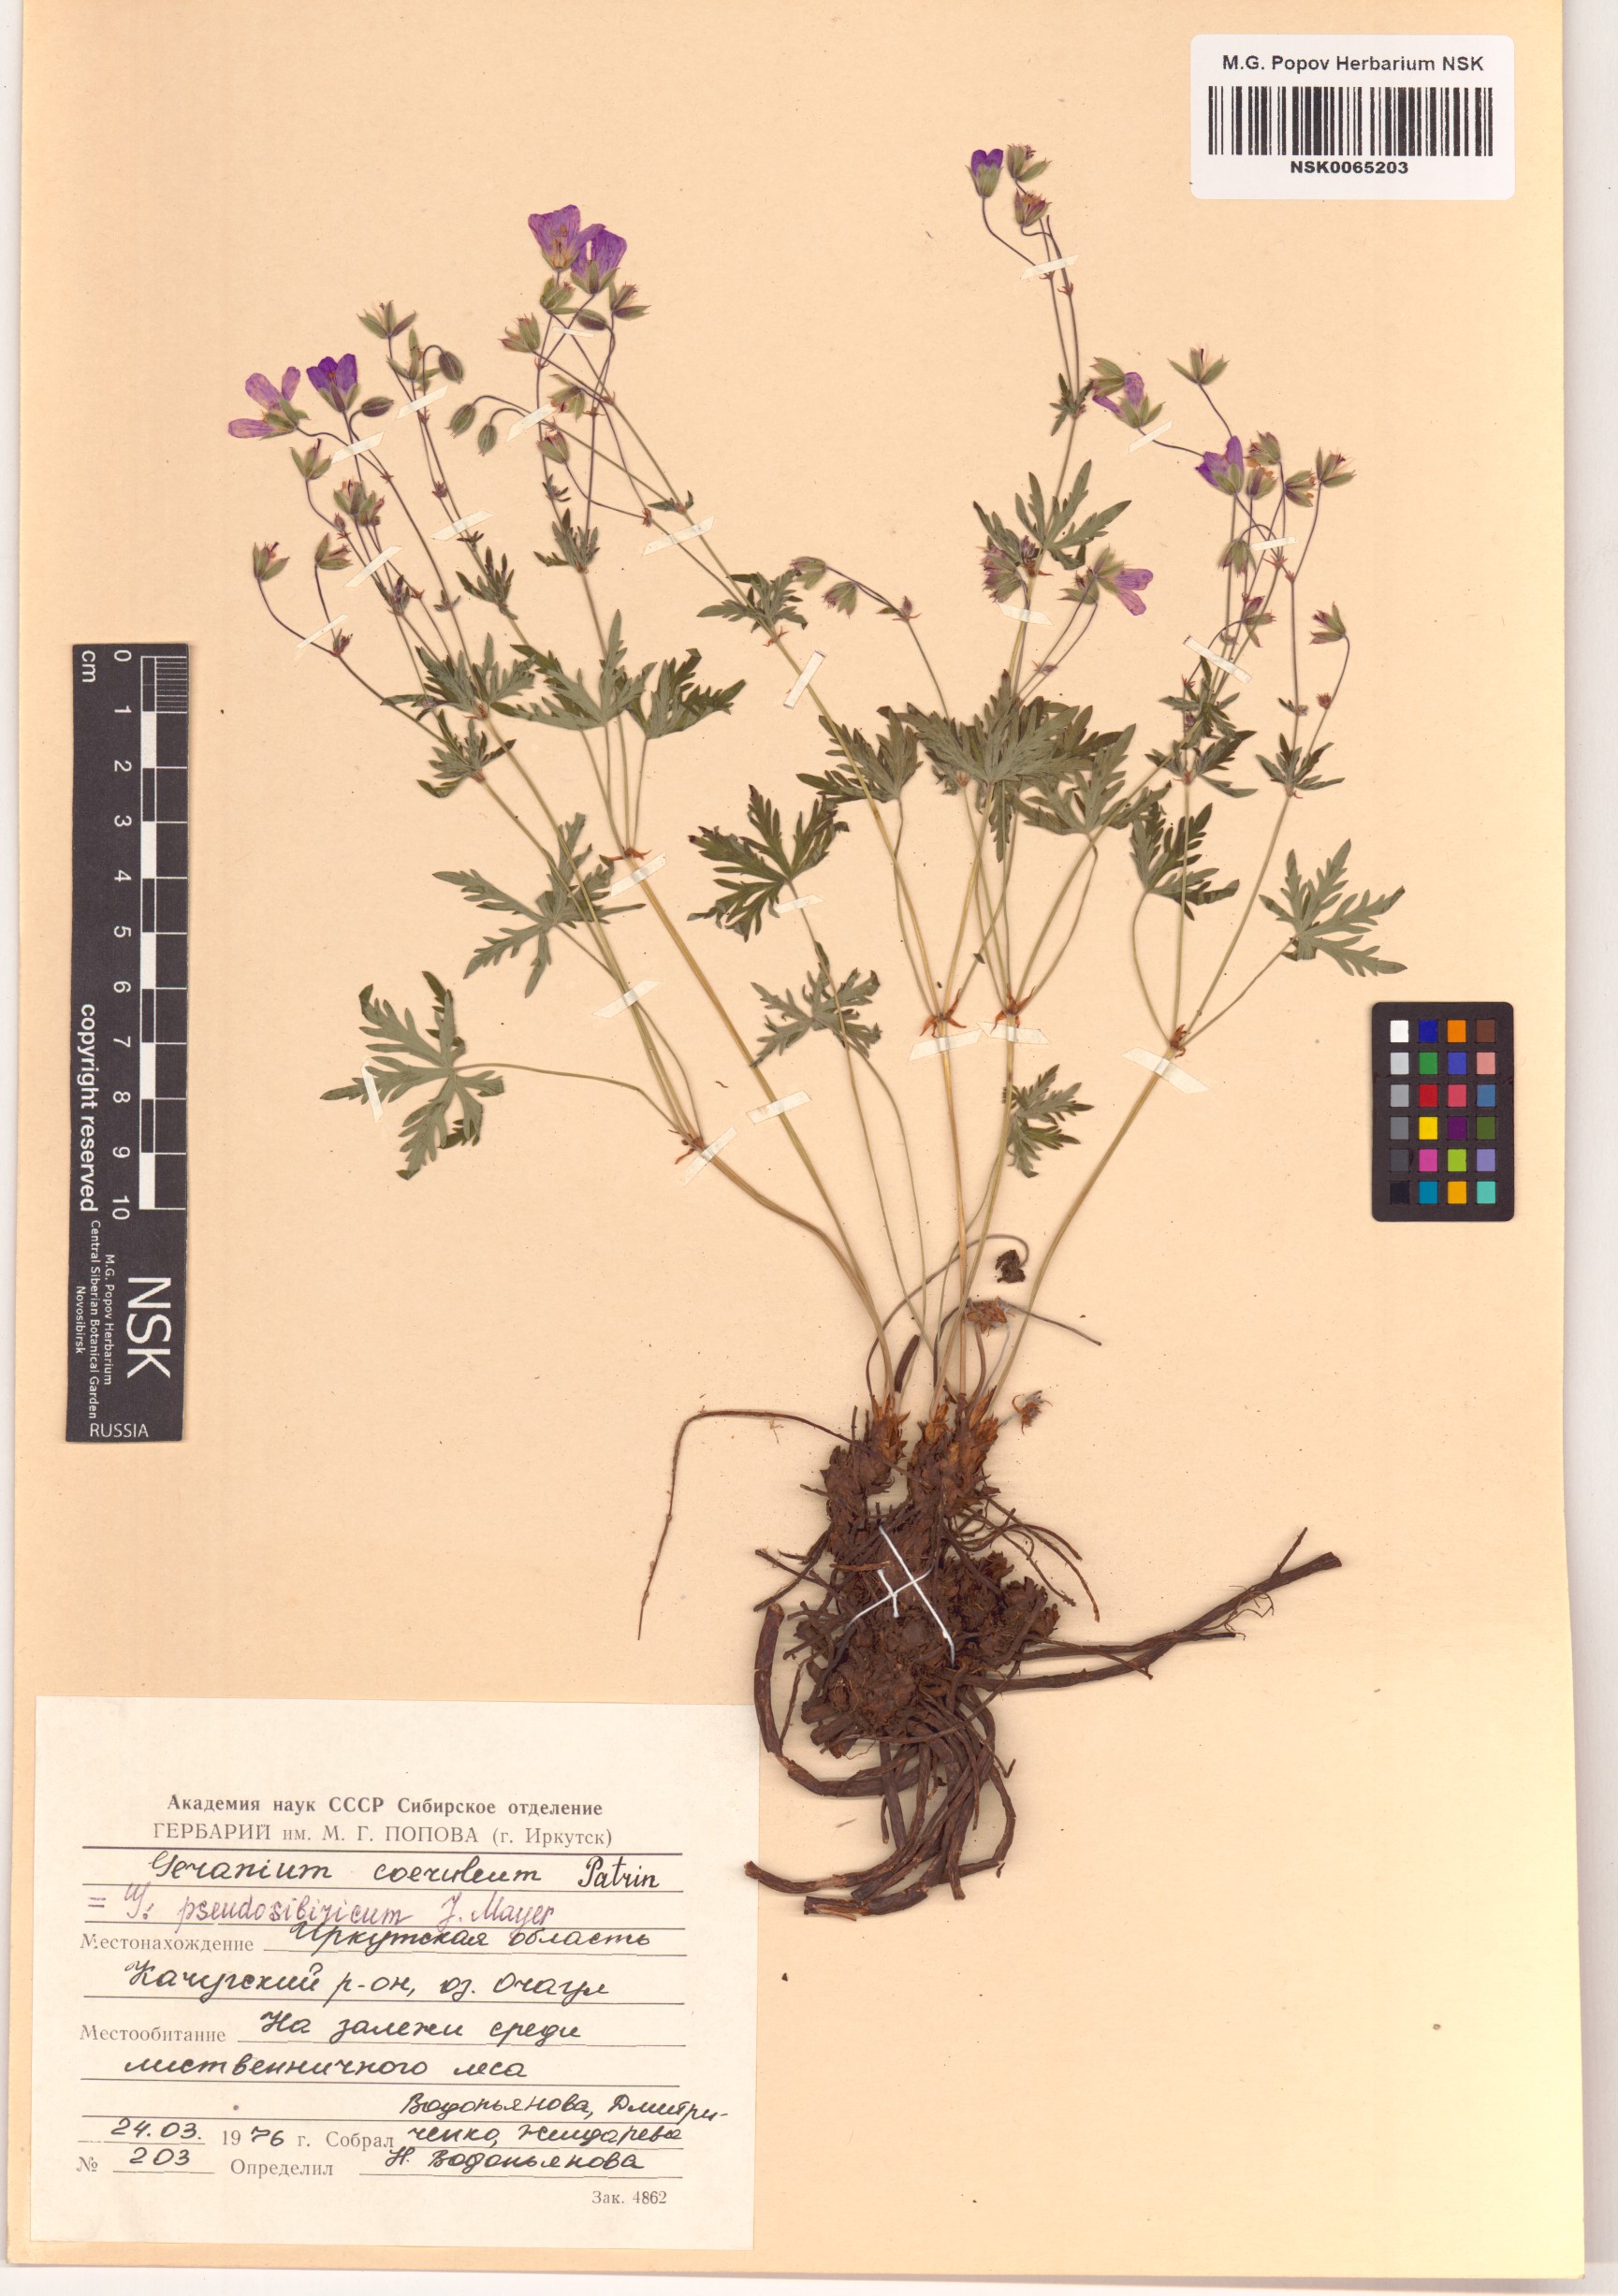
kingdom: Plantae
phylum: Tracheophyta
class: Magnoliopsida
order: Geraniales
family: Geraniaceae
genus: Geranium
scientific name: Geranium pseudosibiricum
